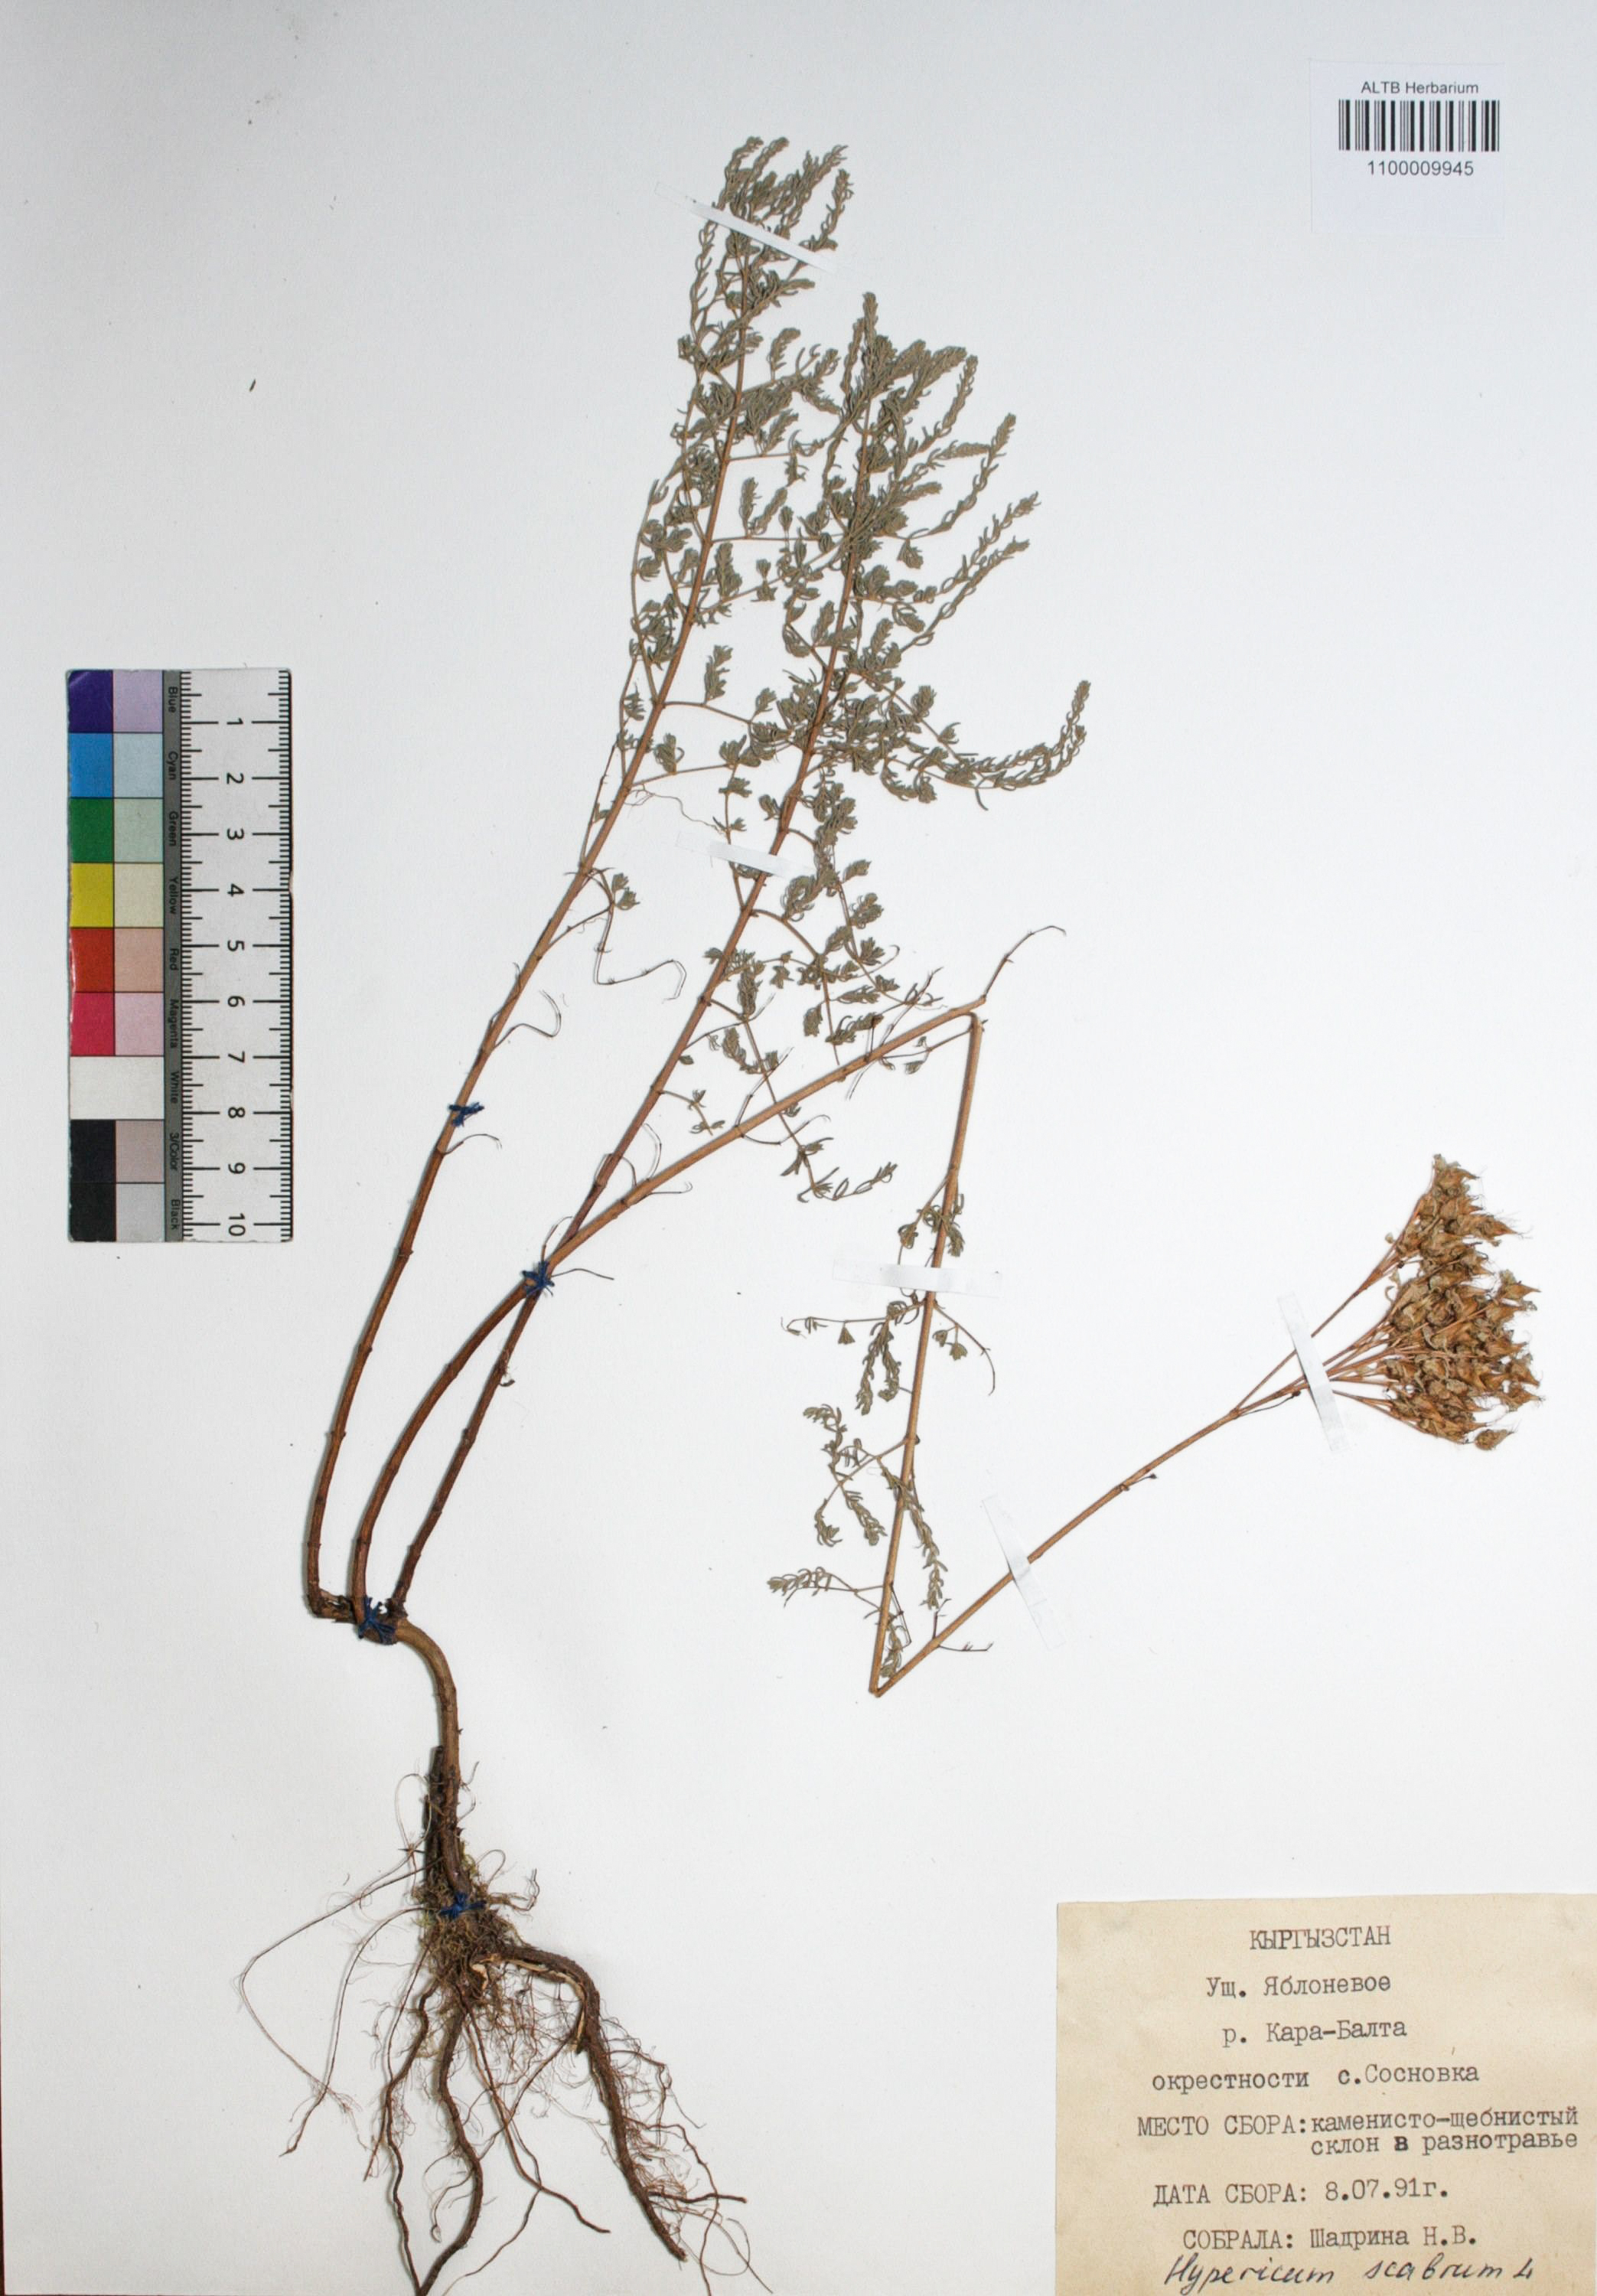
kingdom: Plantae
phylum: Tracheophyta
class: Magnoliopsida
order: Malpighiales
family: Hypericaceae
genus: Hypericum
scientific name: Hypericum scabrum
